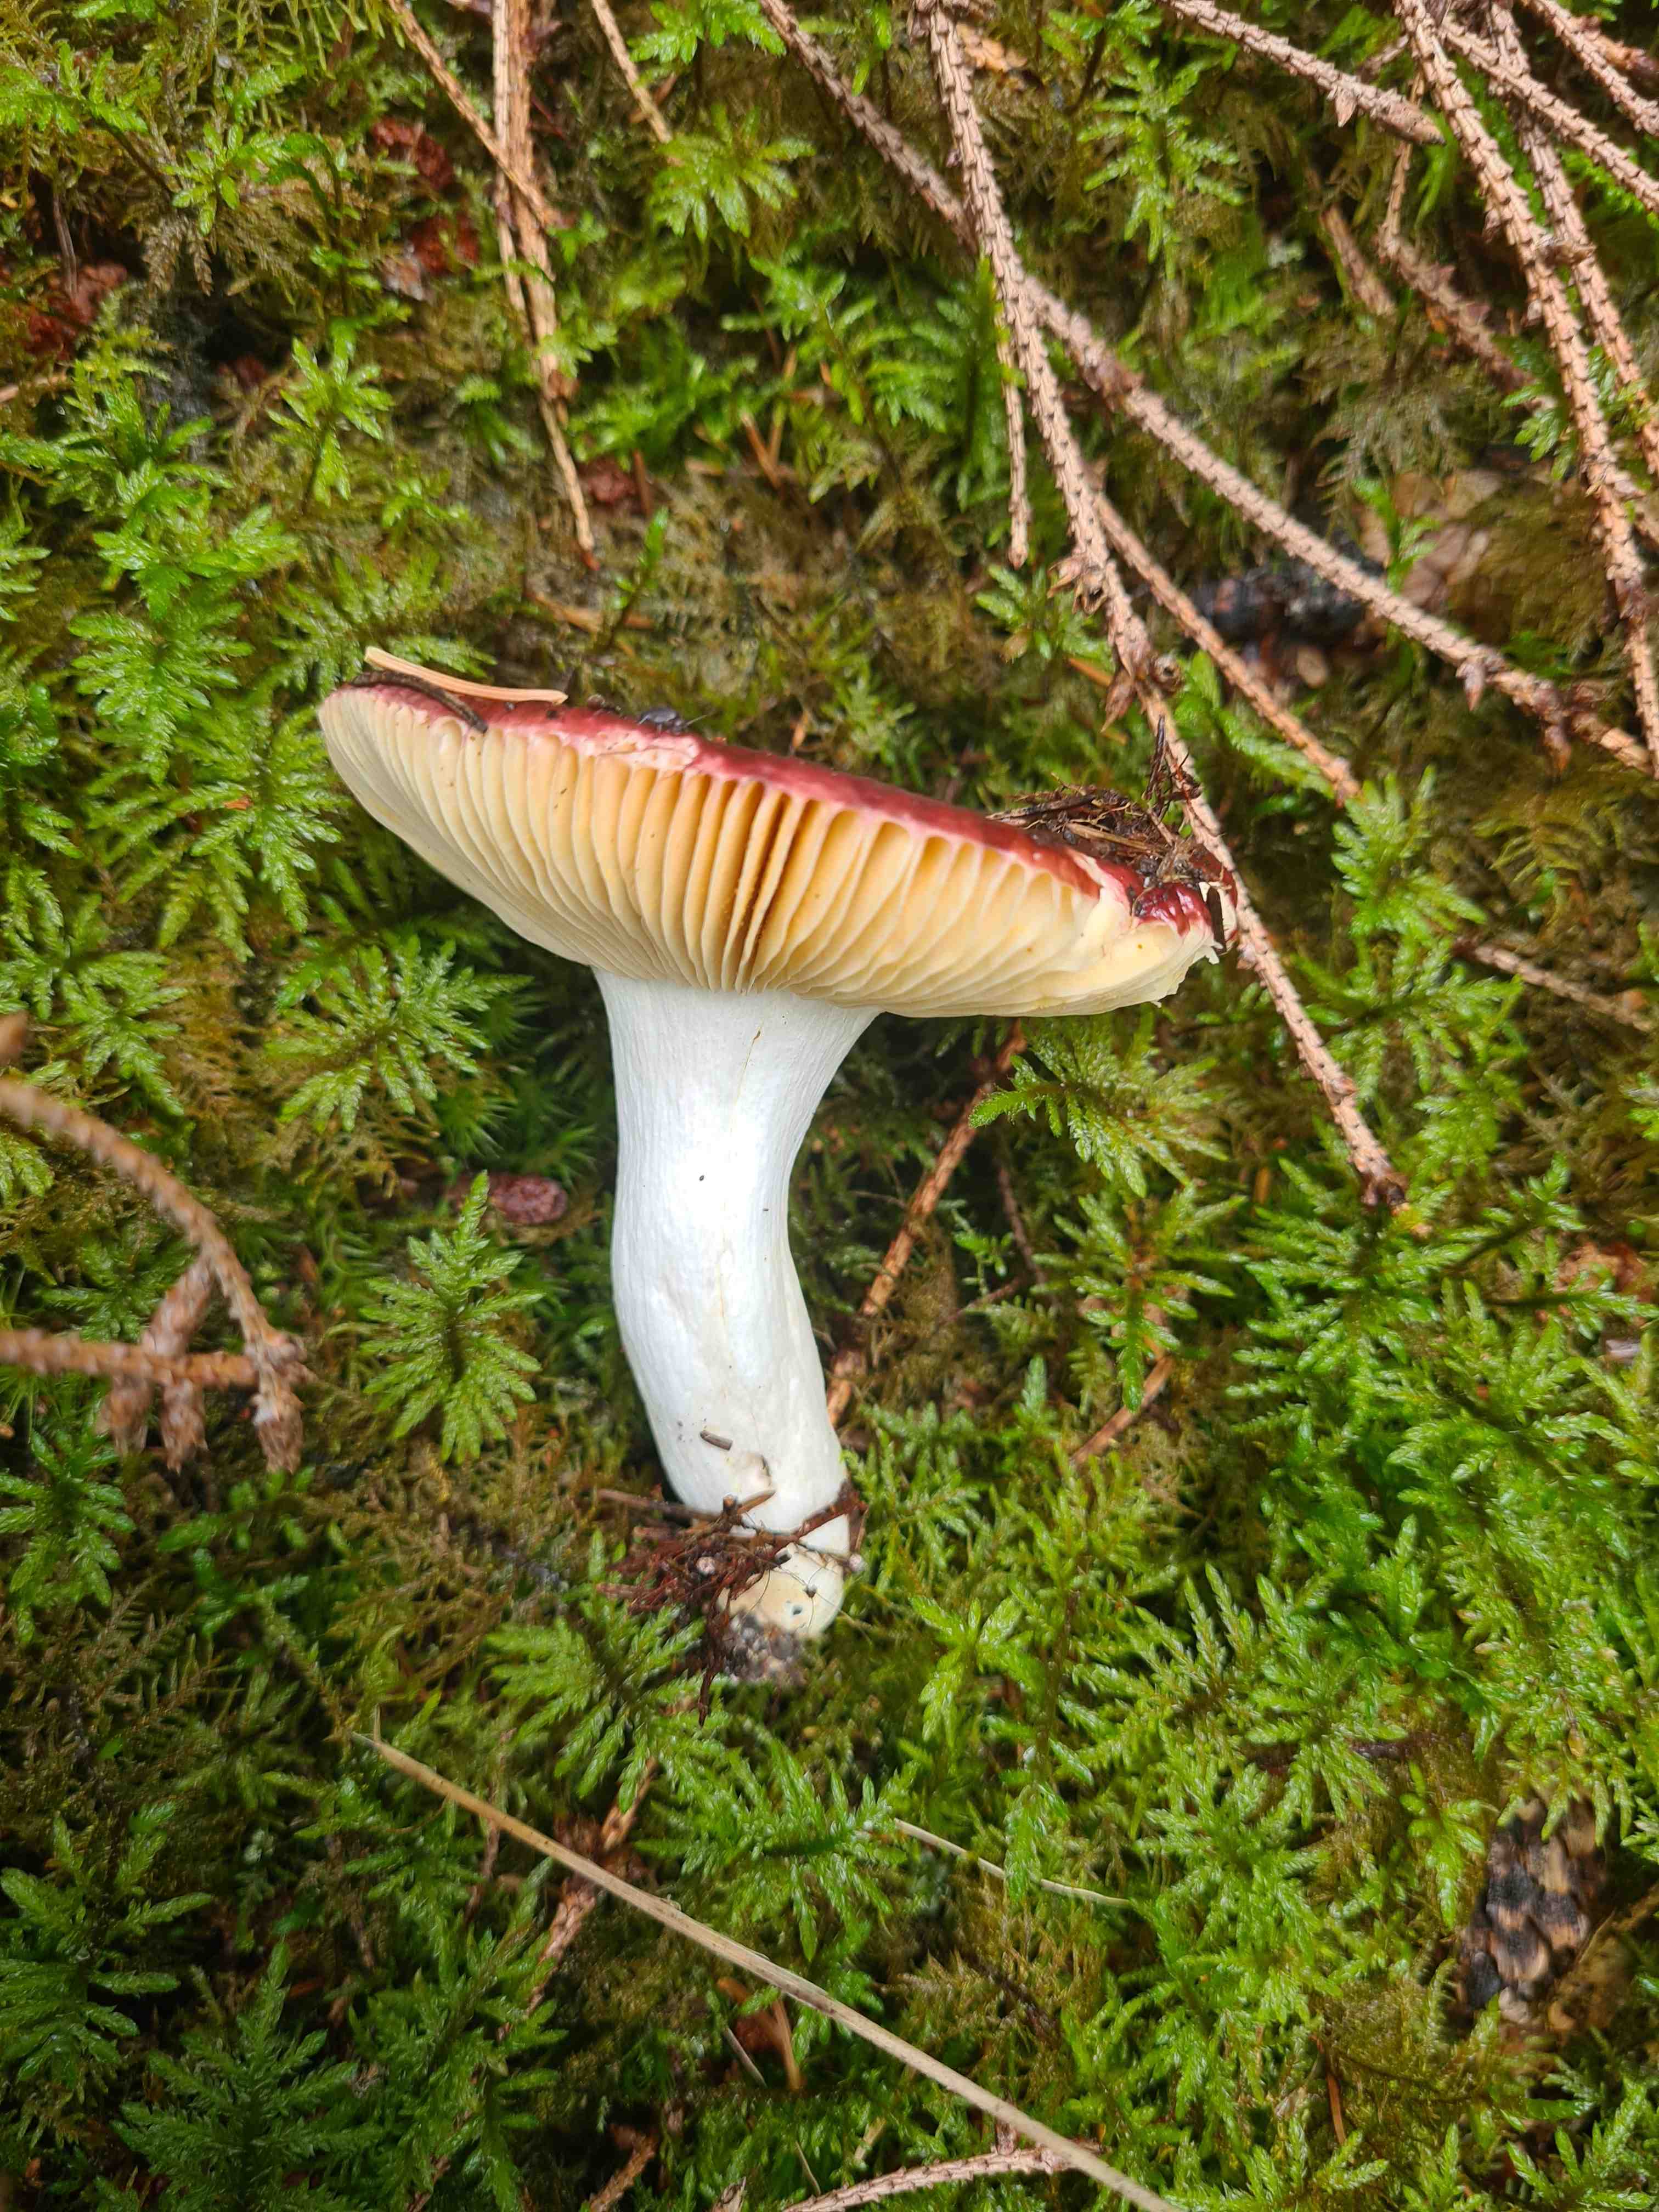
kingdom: Fungi
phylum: Basidiomycota
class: Agaricomycetes
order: Russulales
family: Russulaceae
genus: Russula
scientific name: Russula
